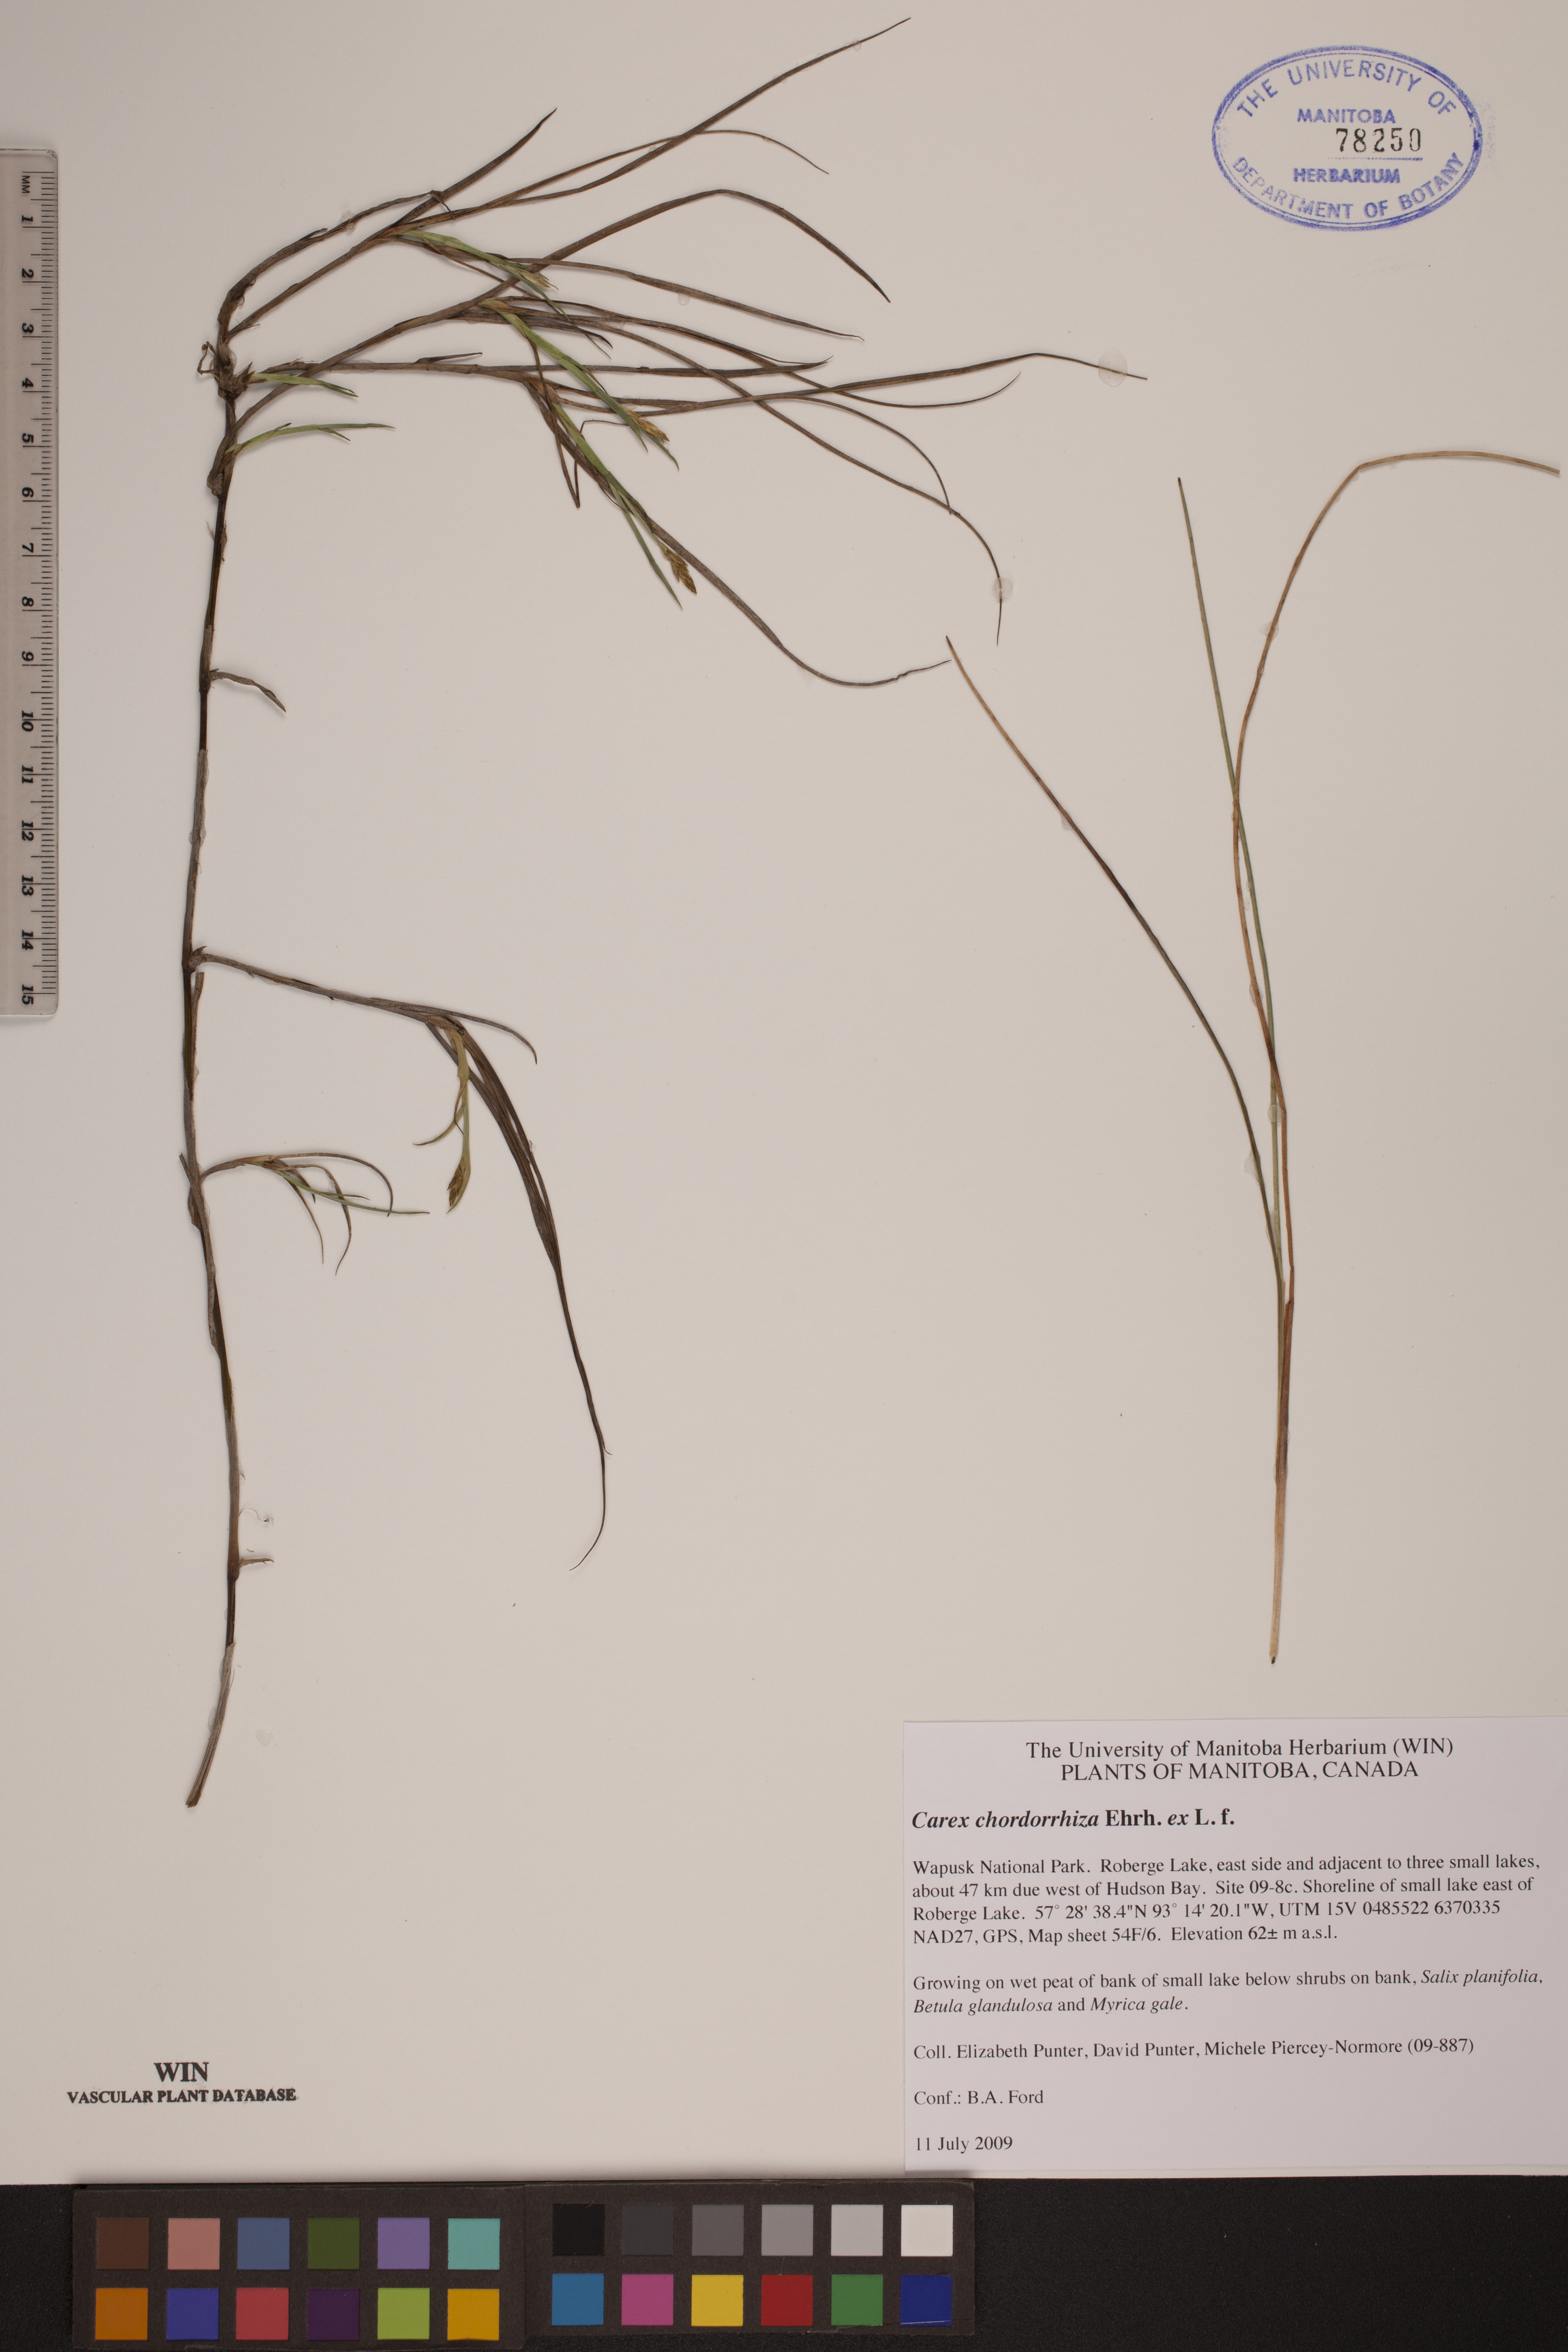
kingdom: Plantae
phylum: Tracheophyta
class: Liliopsida
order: Poales
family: Cyperaceae
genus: Carex
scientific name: Carex chordorrhiza
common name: String sedge
